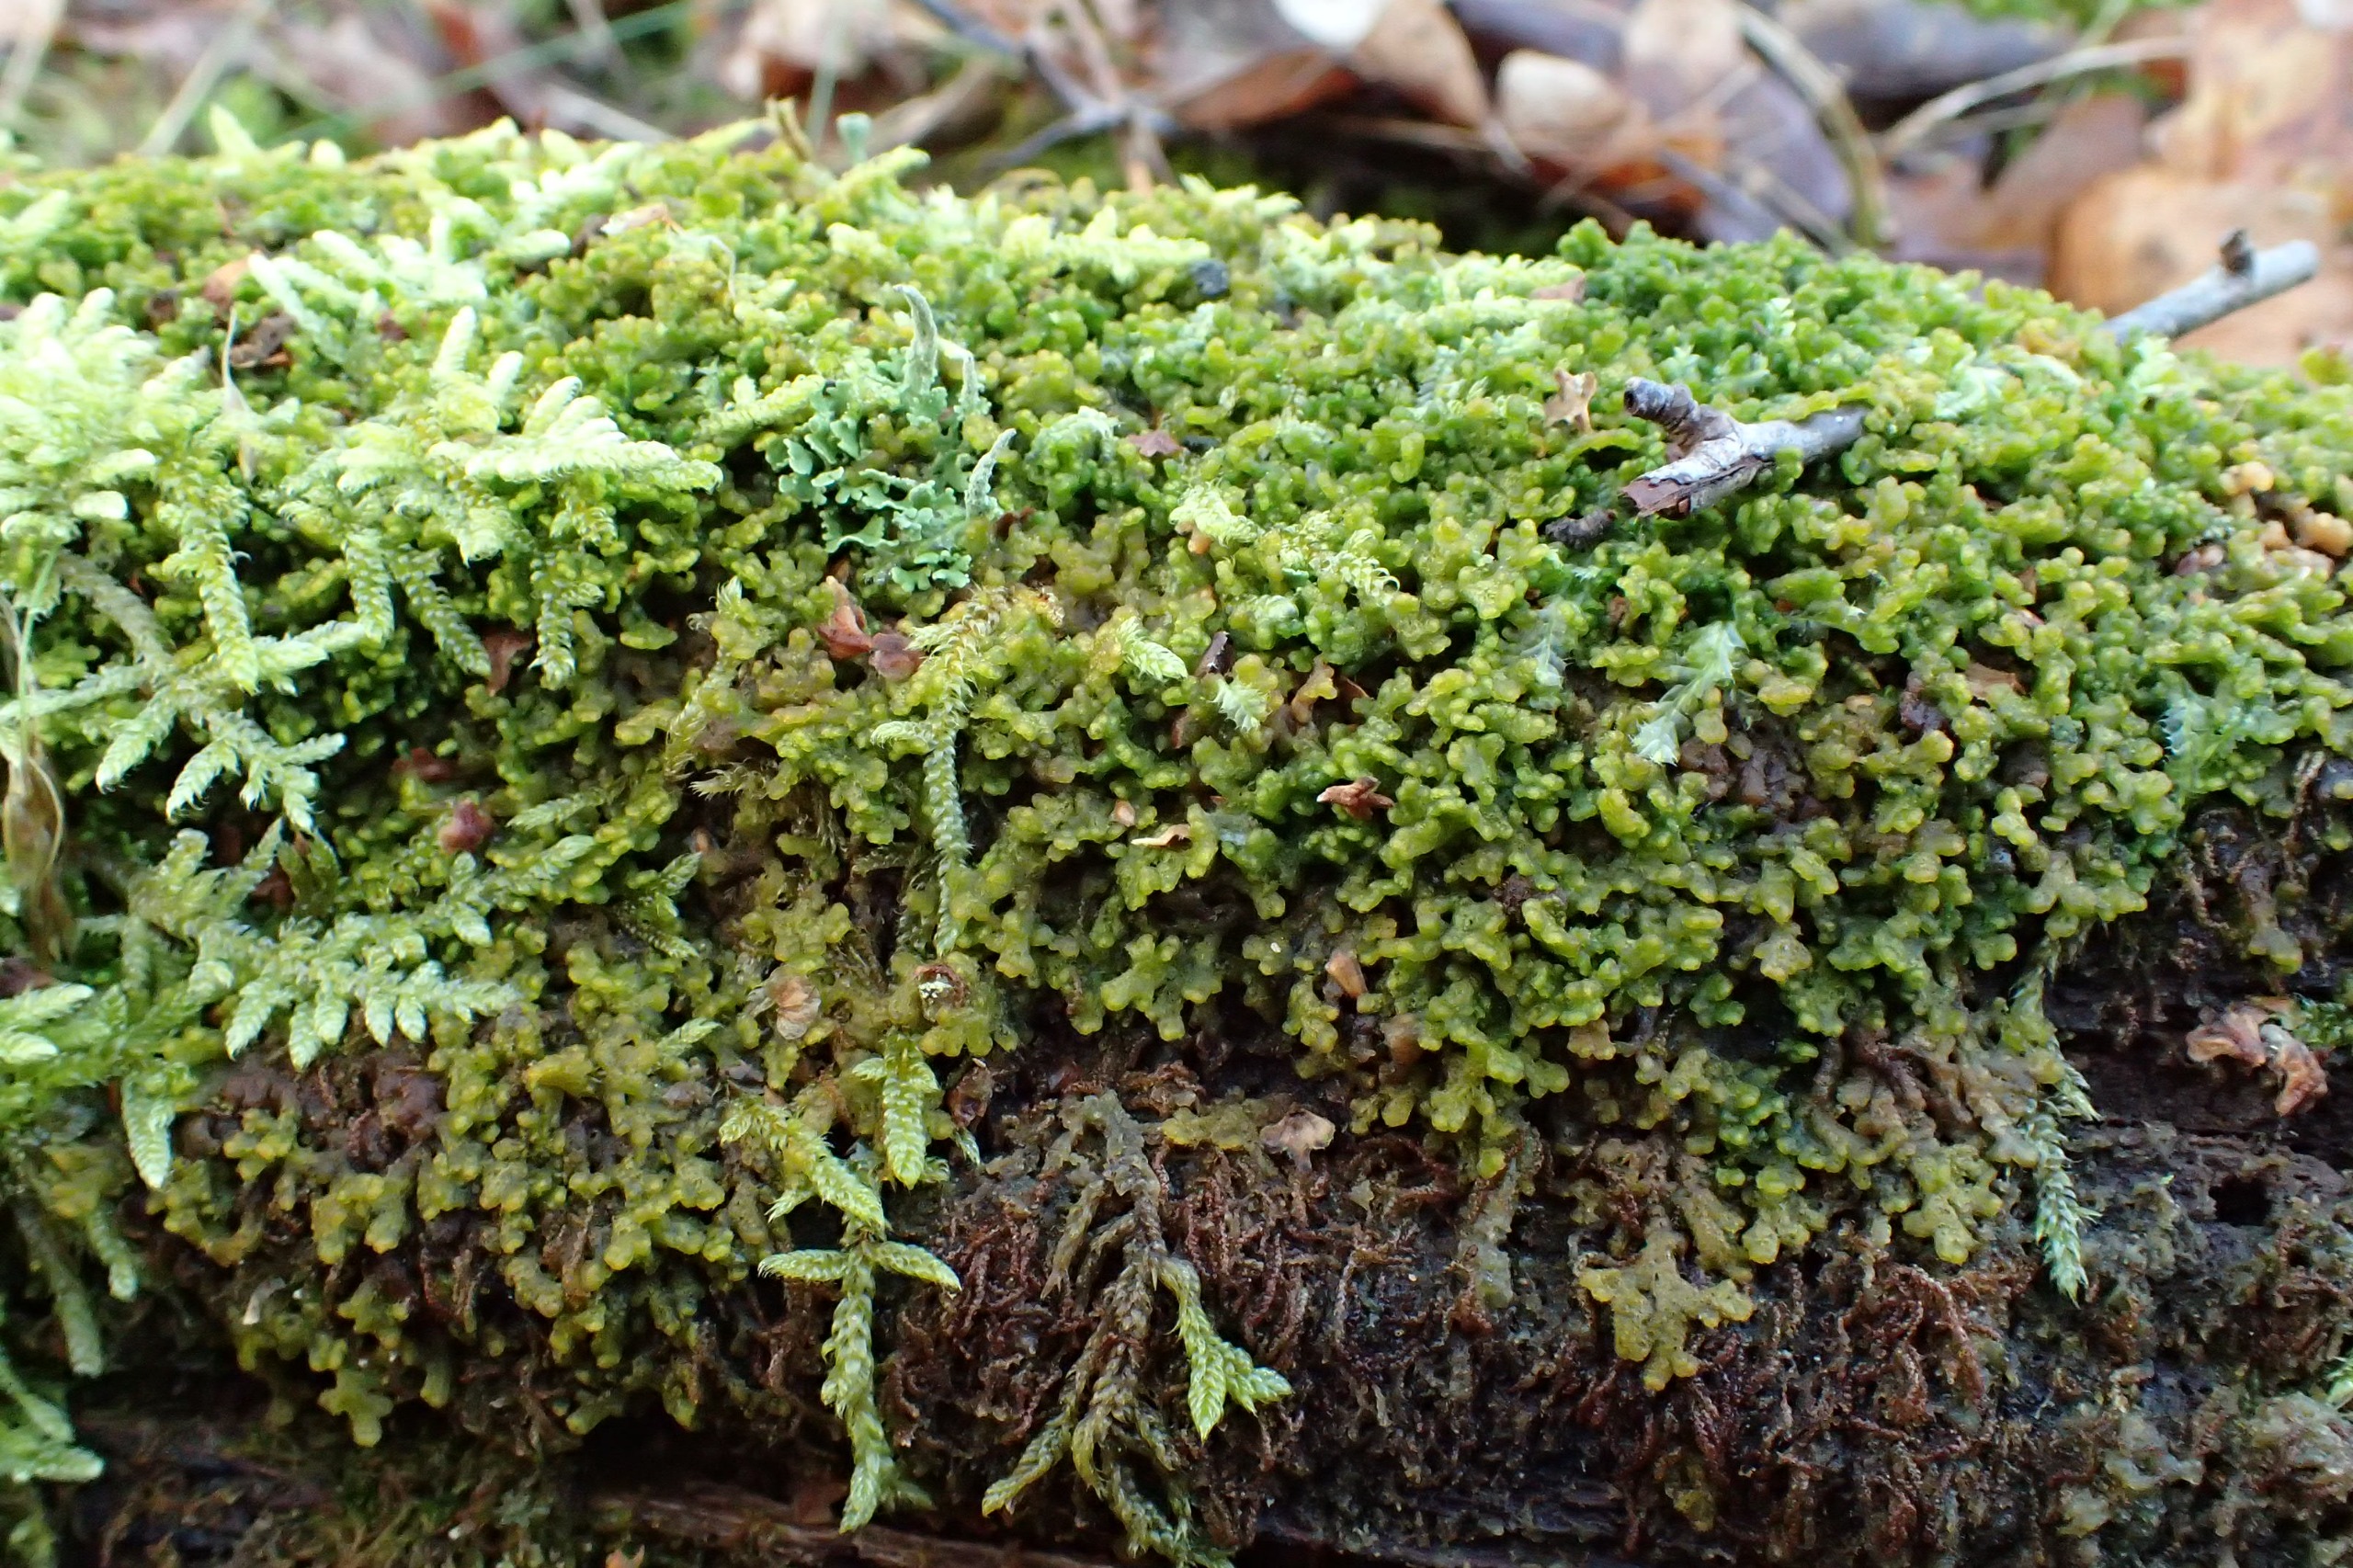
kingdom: Plantae
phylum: Marchantiophyta
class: Jungermanniopsida
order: Ptilidiales
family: Ptilidiaceae
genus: Ptilidium
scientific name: Ptilidium pulcherrimum
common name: Stub-frynsemos
